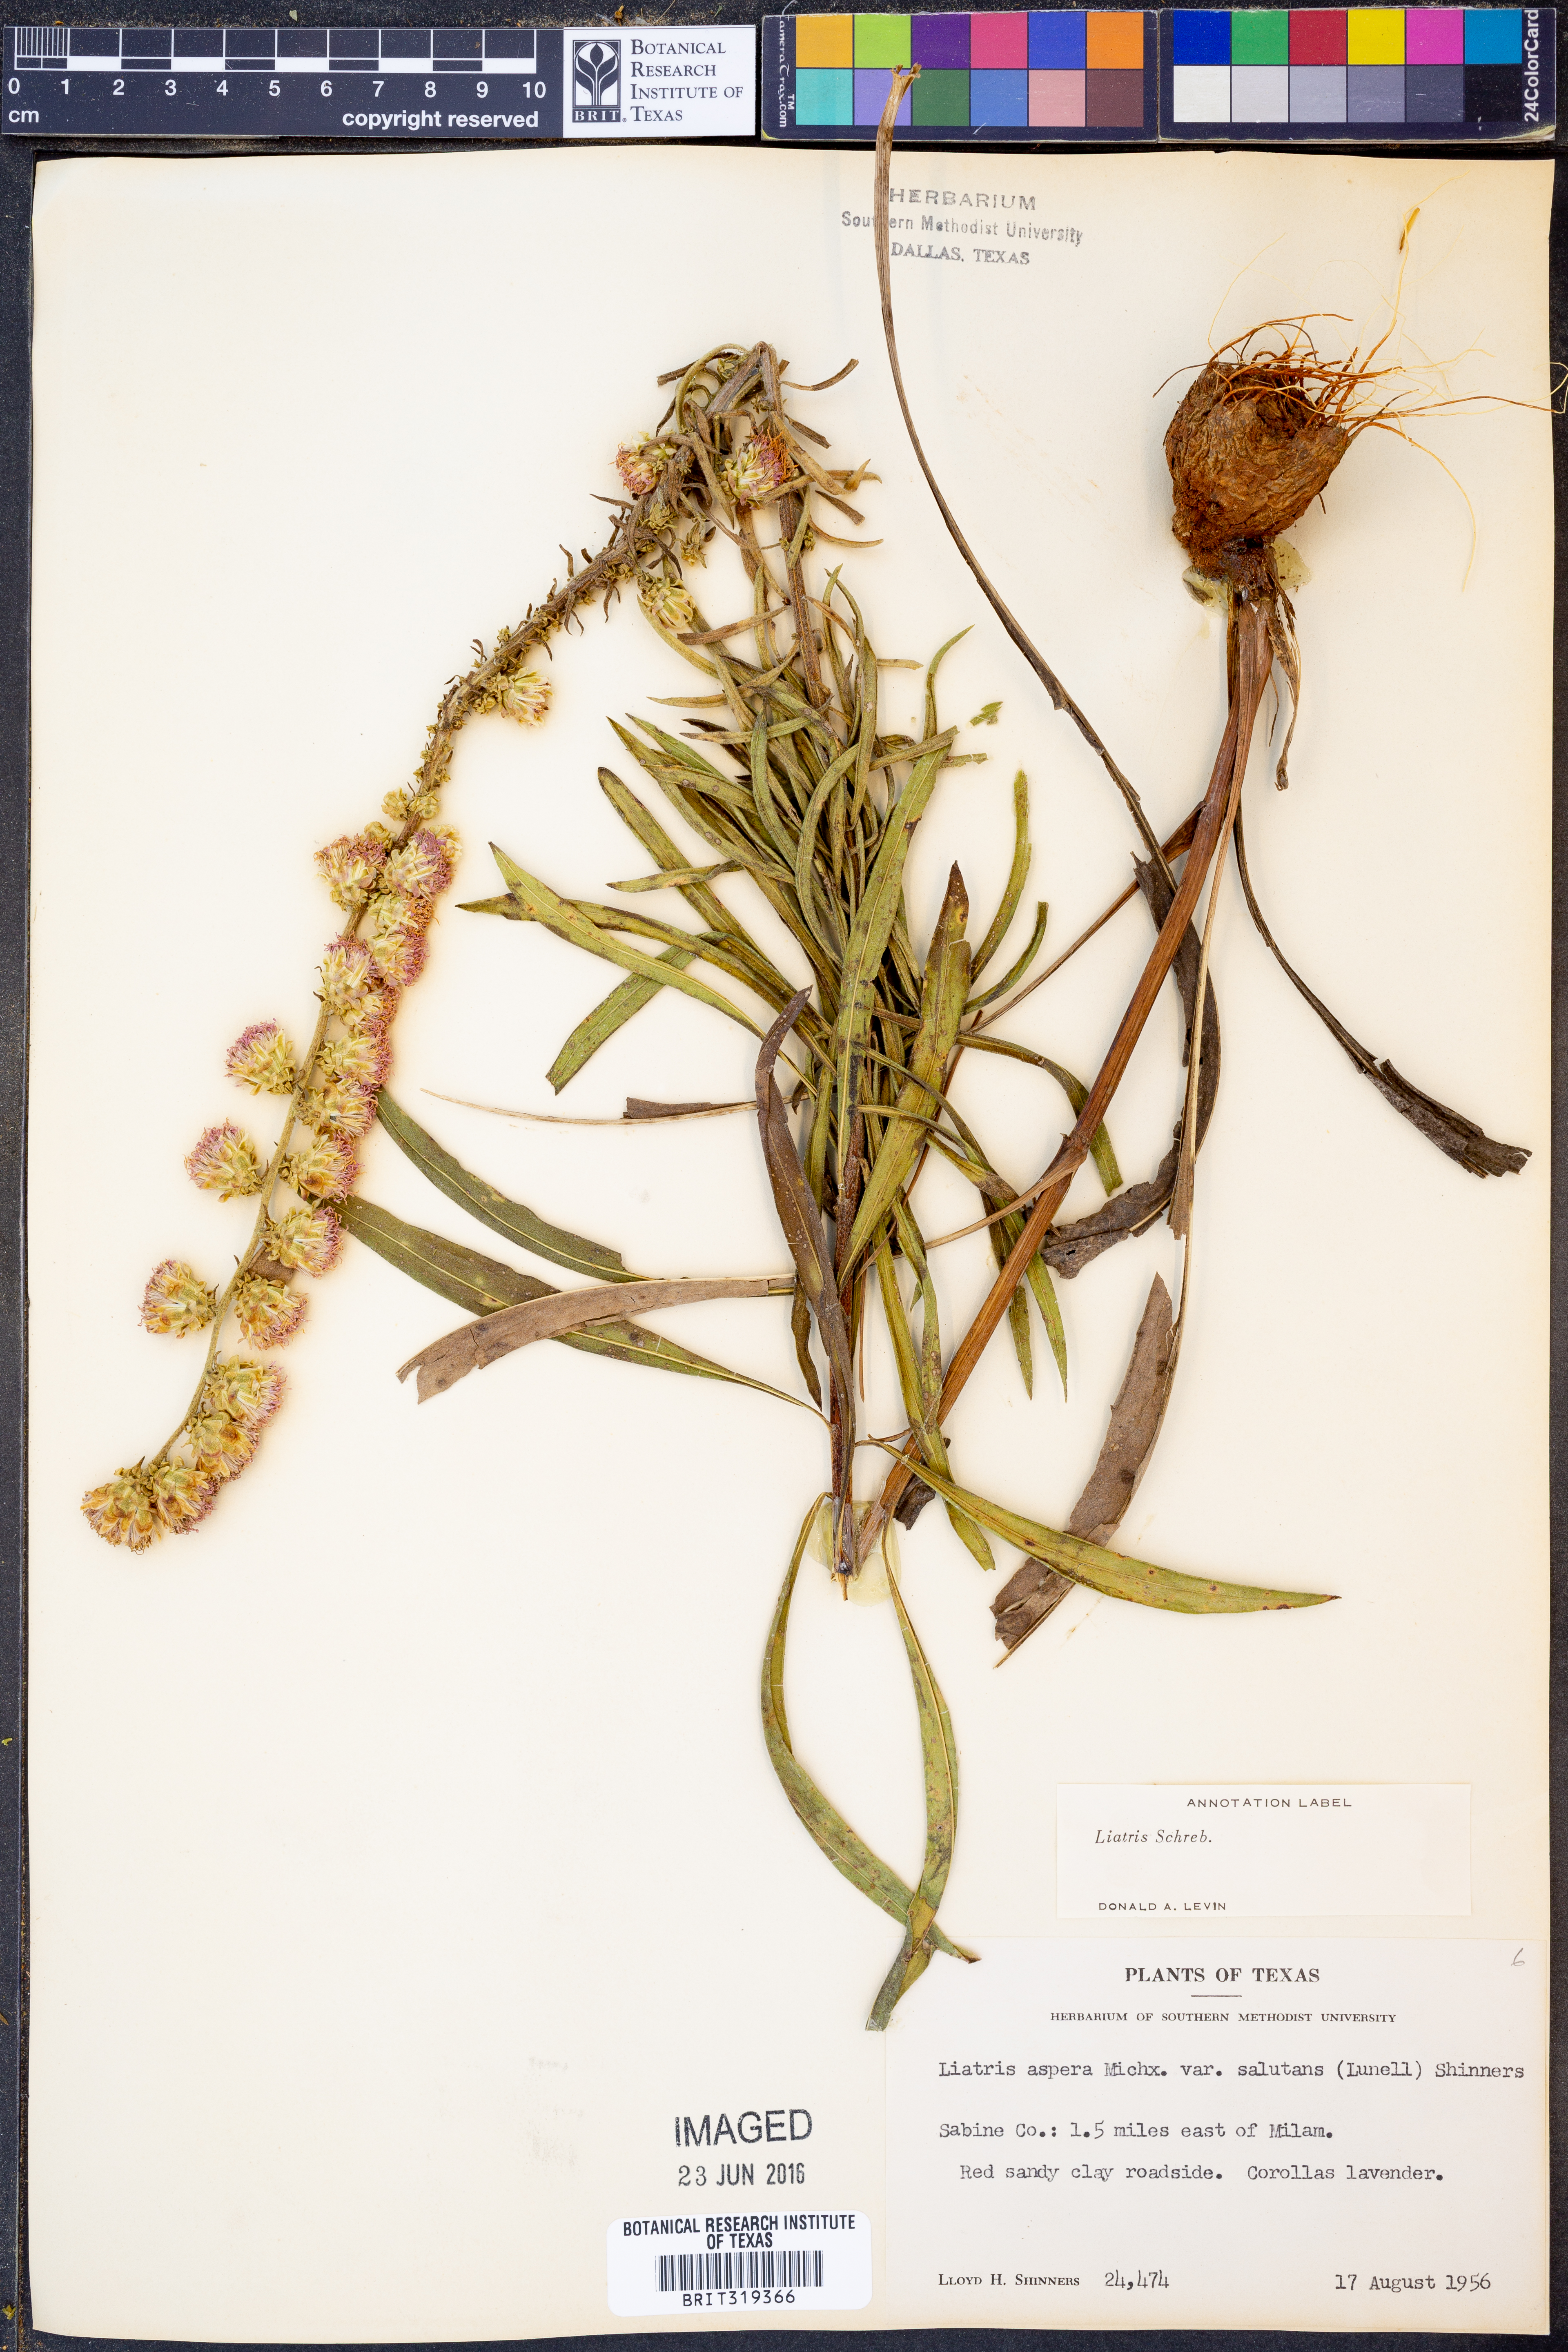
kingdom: Plantae
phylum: Tracheophyta
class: Magnoliopsida
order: Asterales
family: Asteraceae
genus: Liatris
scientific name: Liatris aspera
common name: Lacerate blazing-star
